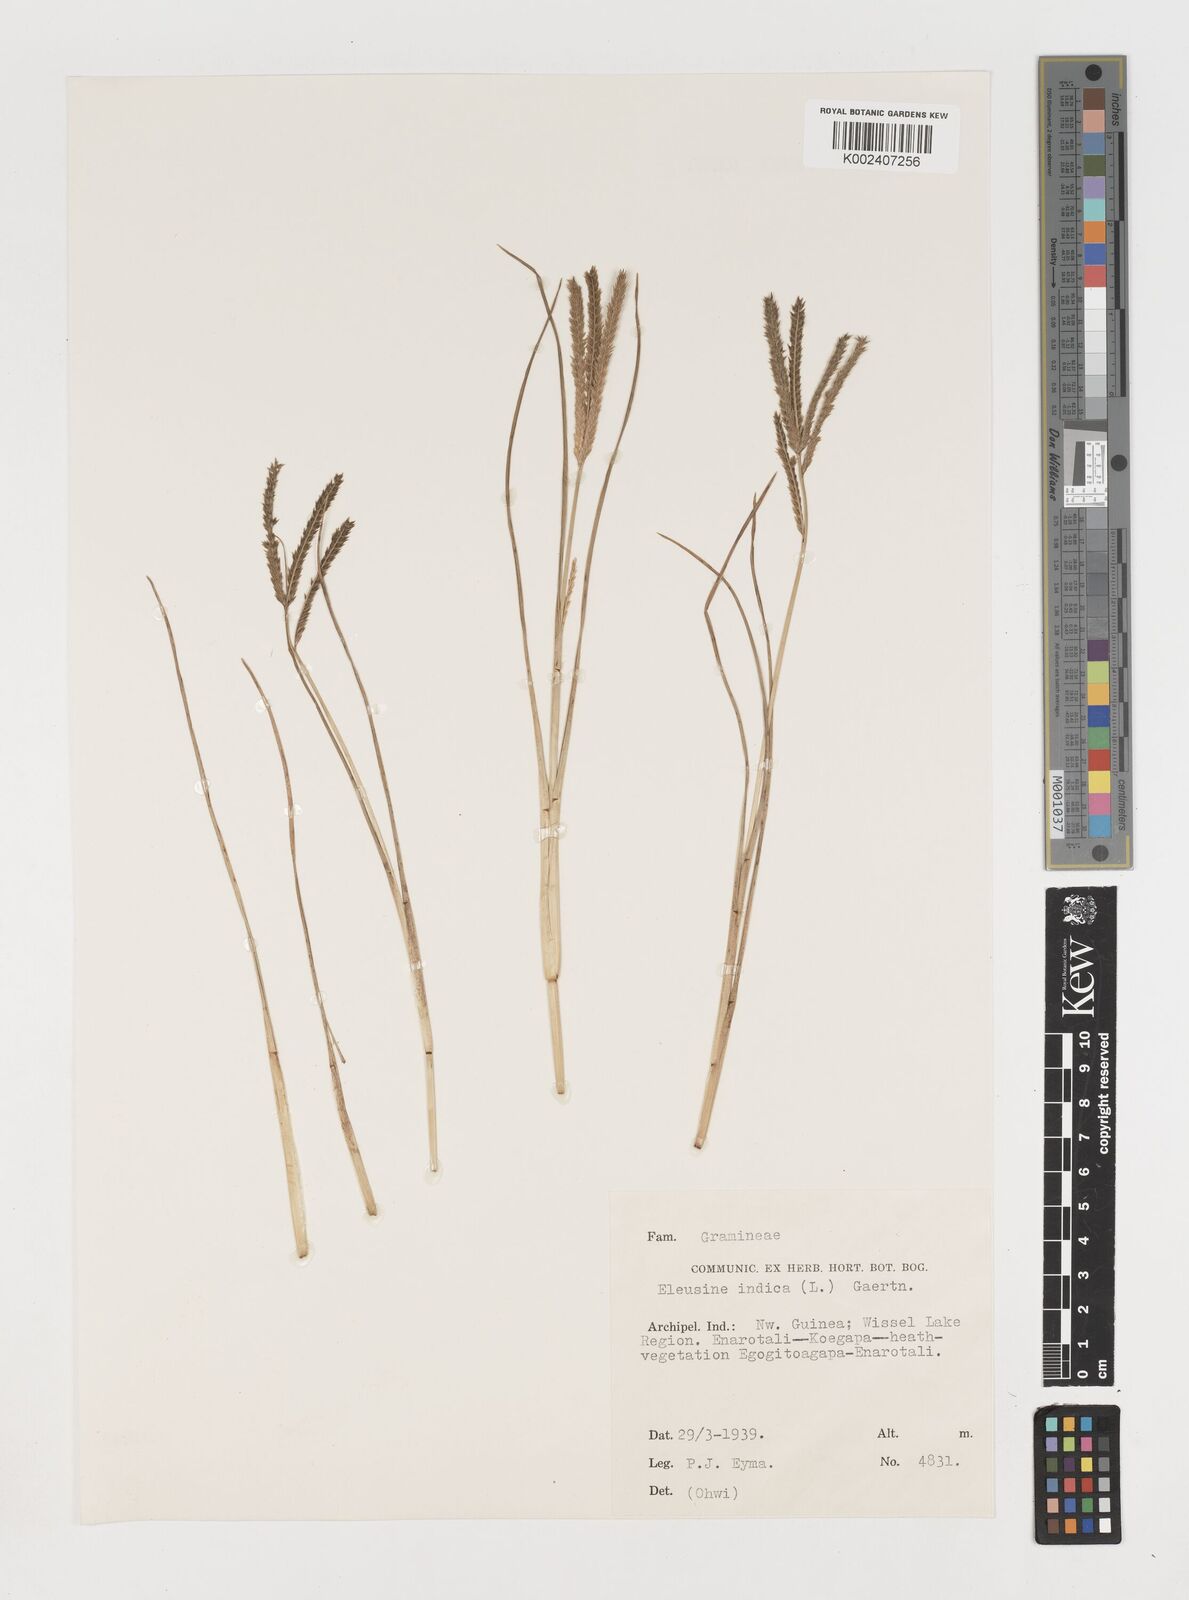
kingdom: Plantae
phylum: Tracheophyta
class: Liliopsida
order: Poales
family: Poaceae
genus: Eleusine
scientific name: Eleusine indica
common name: Yard-grass
